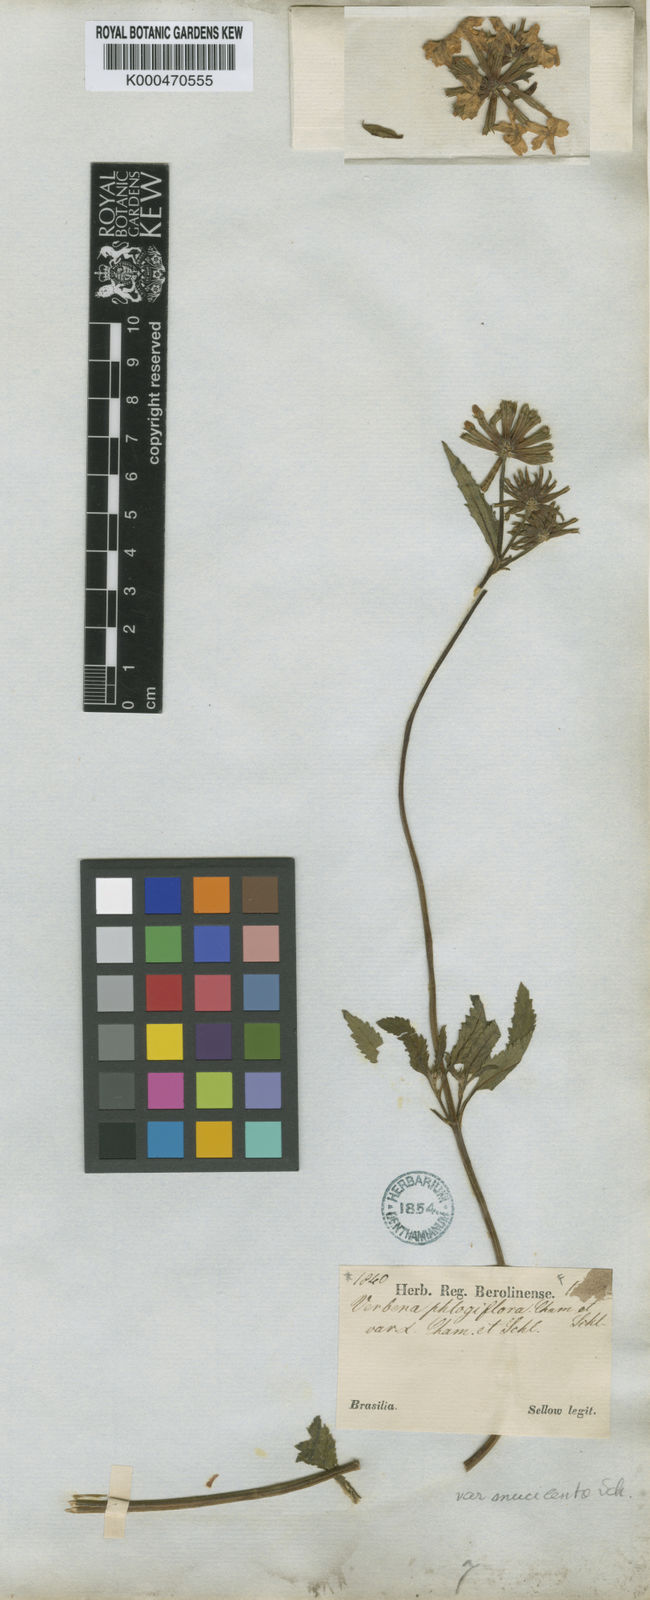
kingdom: Plantae
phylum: Tracheophyta
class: Magnoliopsida
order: Lamiales
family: Verbenaceae
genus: Verbena
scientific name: Verbena phlogiflora
